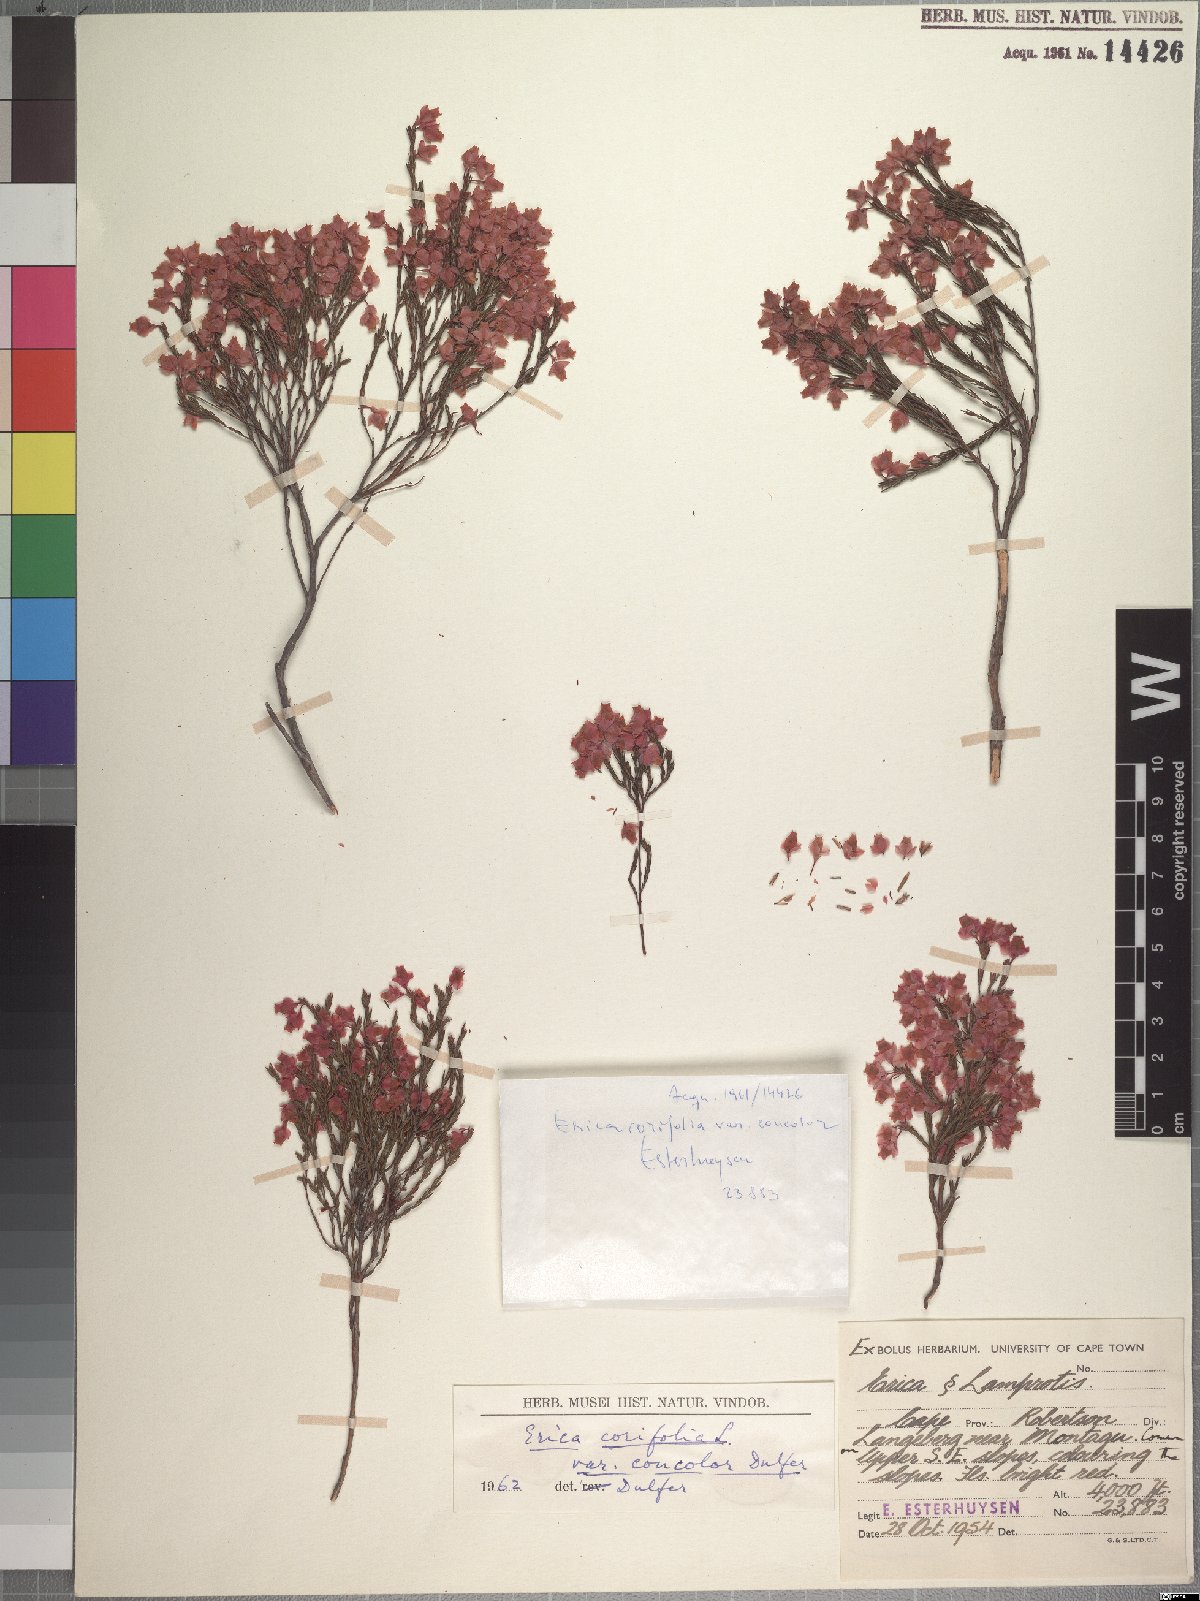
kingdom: Plantae
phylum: Tracheophyta
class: Magnoliopsida
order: Ericales
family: Ericaceae
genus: Erica
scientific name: Erica corifolia
